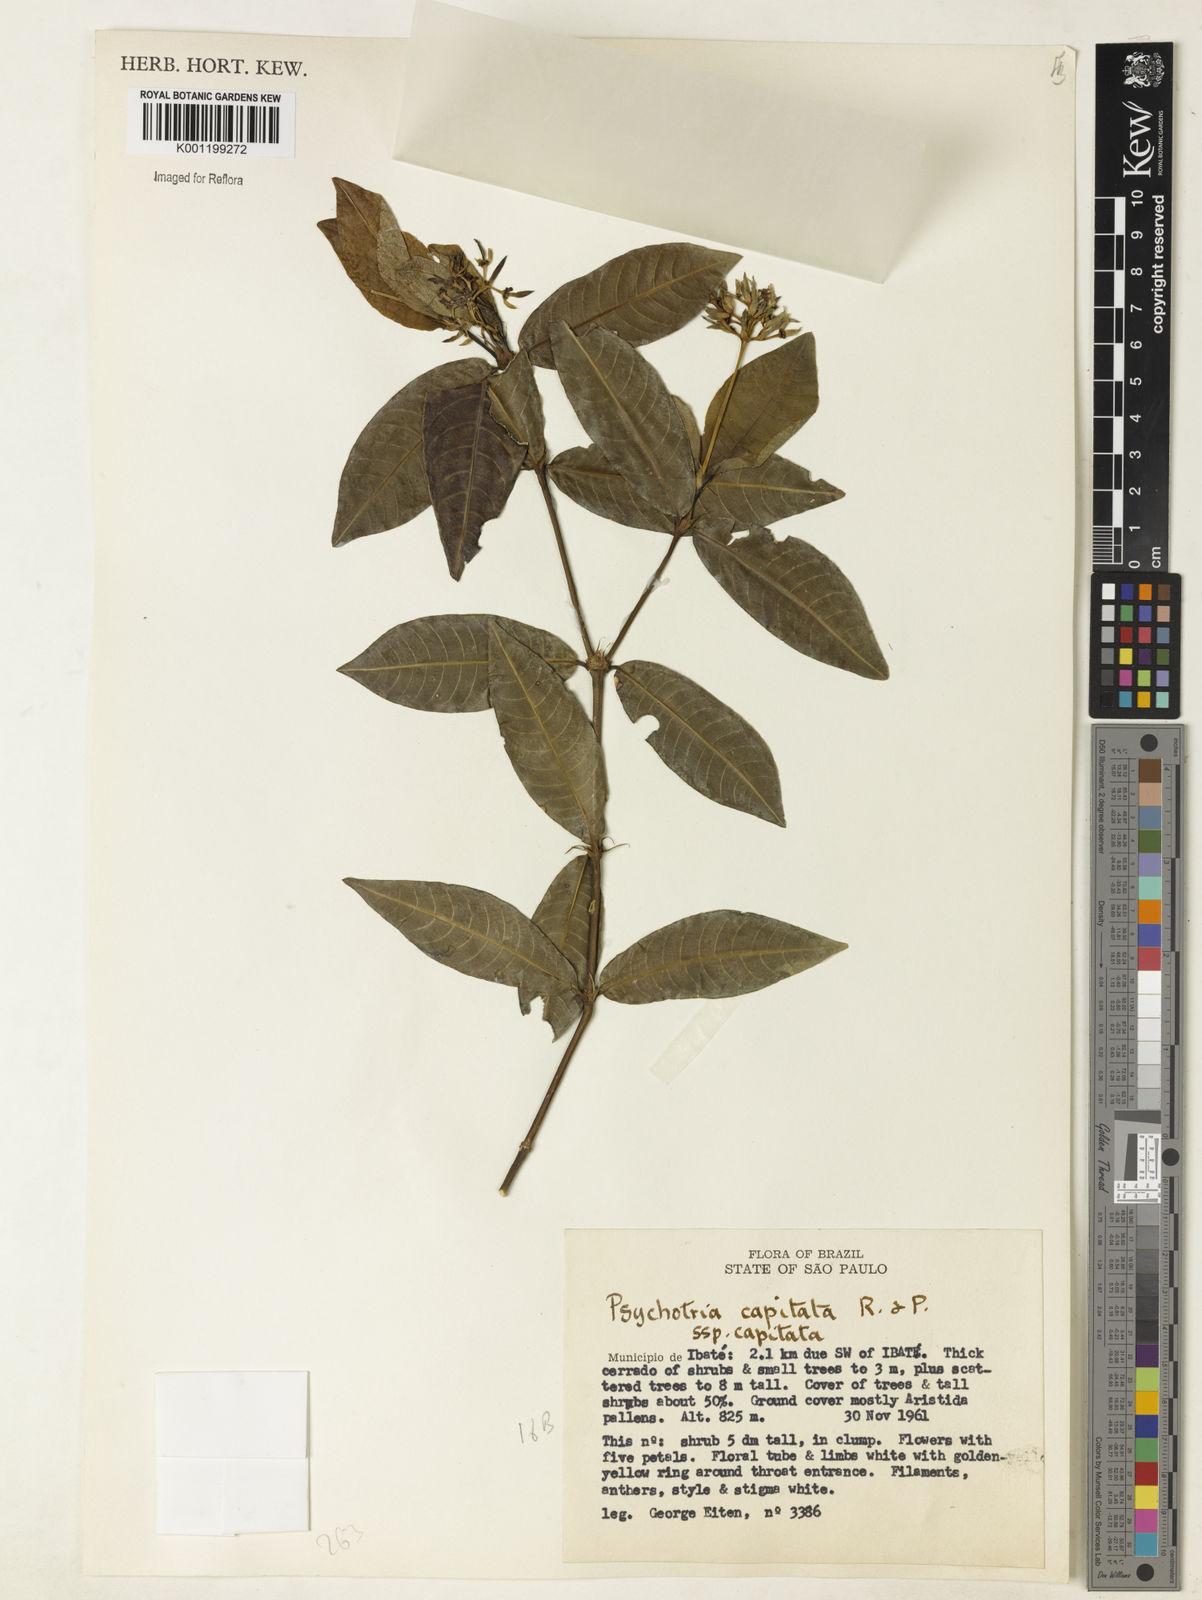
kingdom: Plantae
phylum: Tracheophyta
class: Magnoliopsida
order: Gentianales
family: Rubiaceae
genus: Palicourea
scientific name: Palicourea violacea
